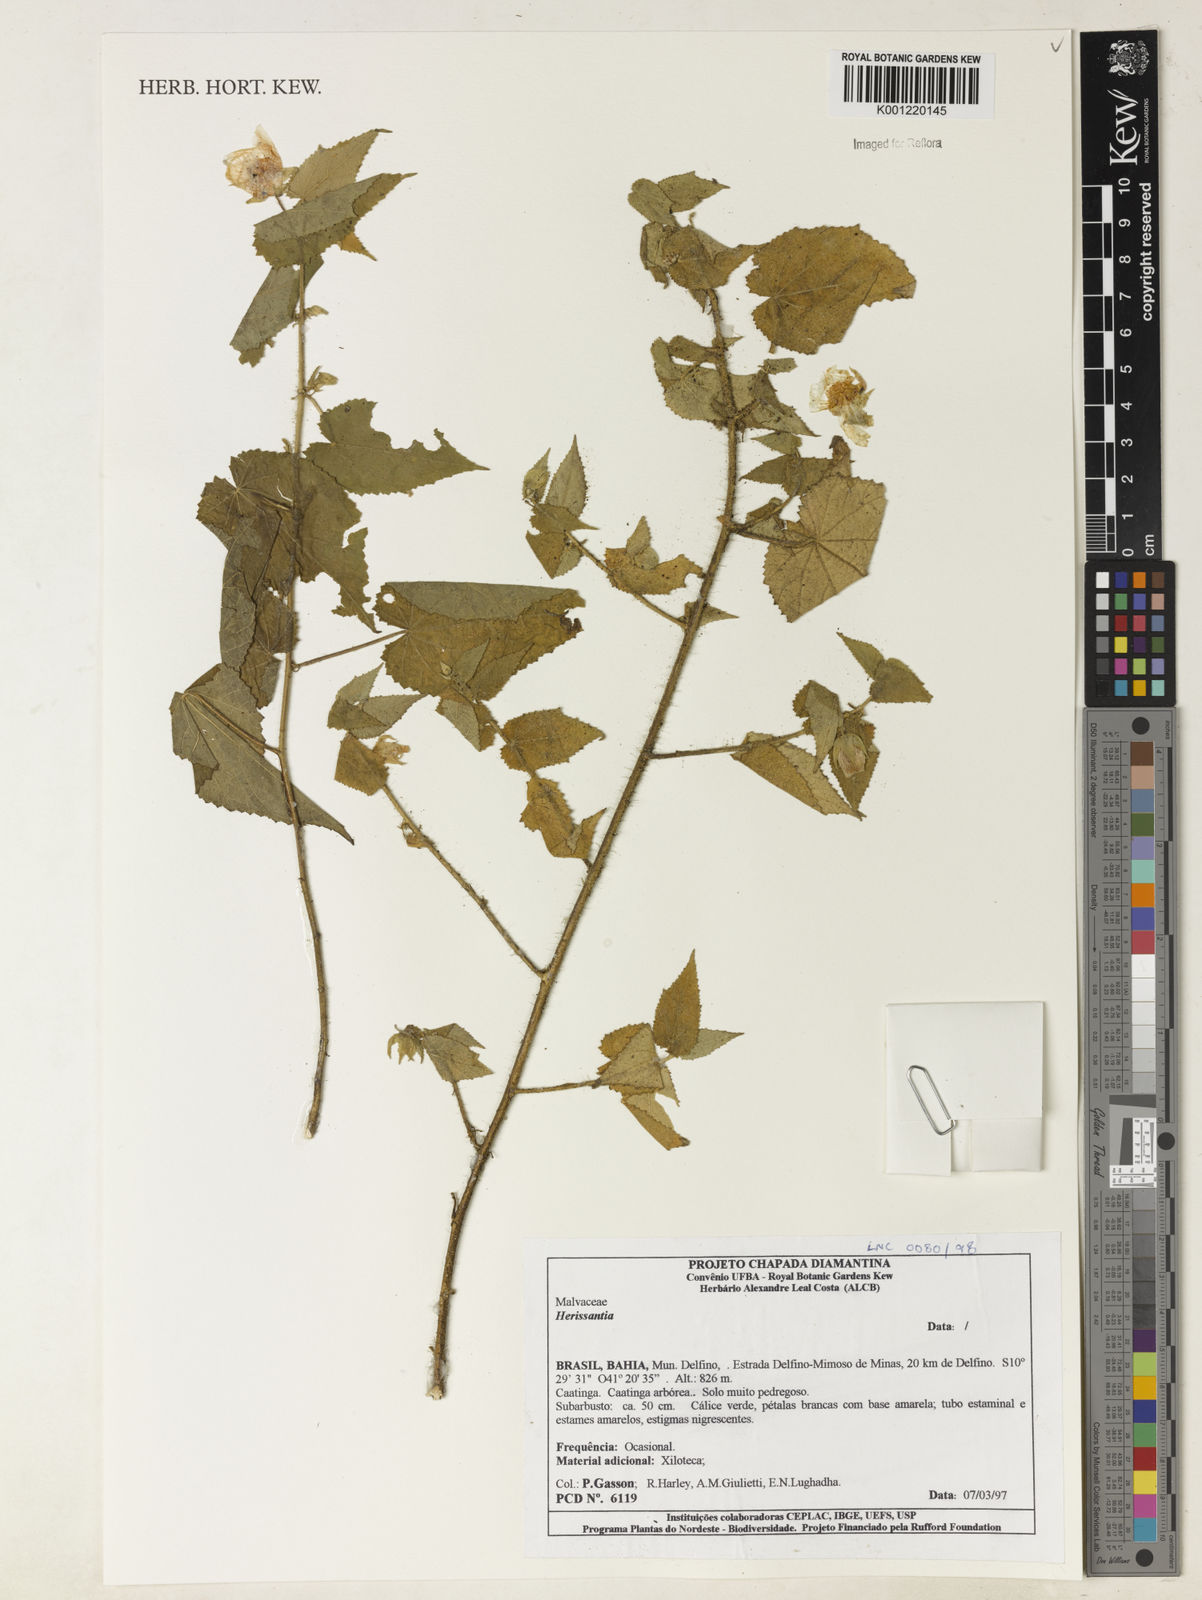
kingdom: Plantae
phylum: Tracheophyta
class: Magnoliopsida
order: Malvales
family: Malvaceae
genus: Herissantia
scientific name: Herissantia
